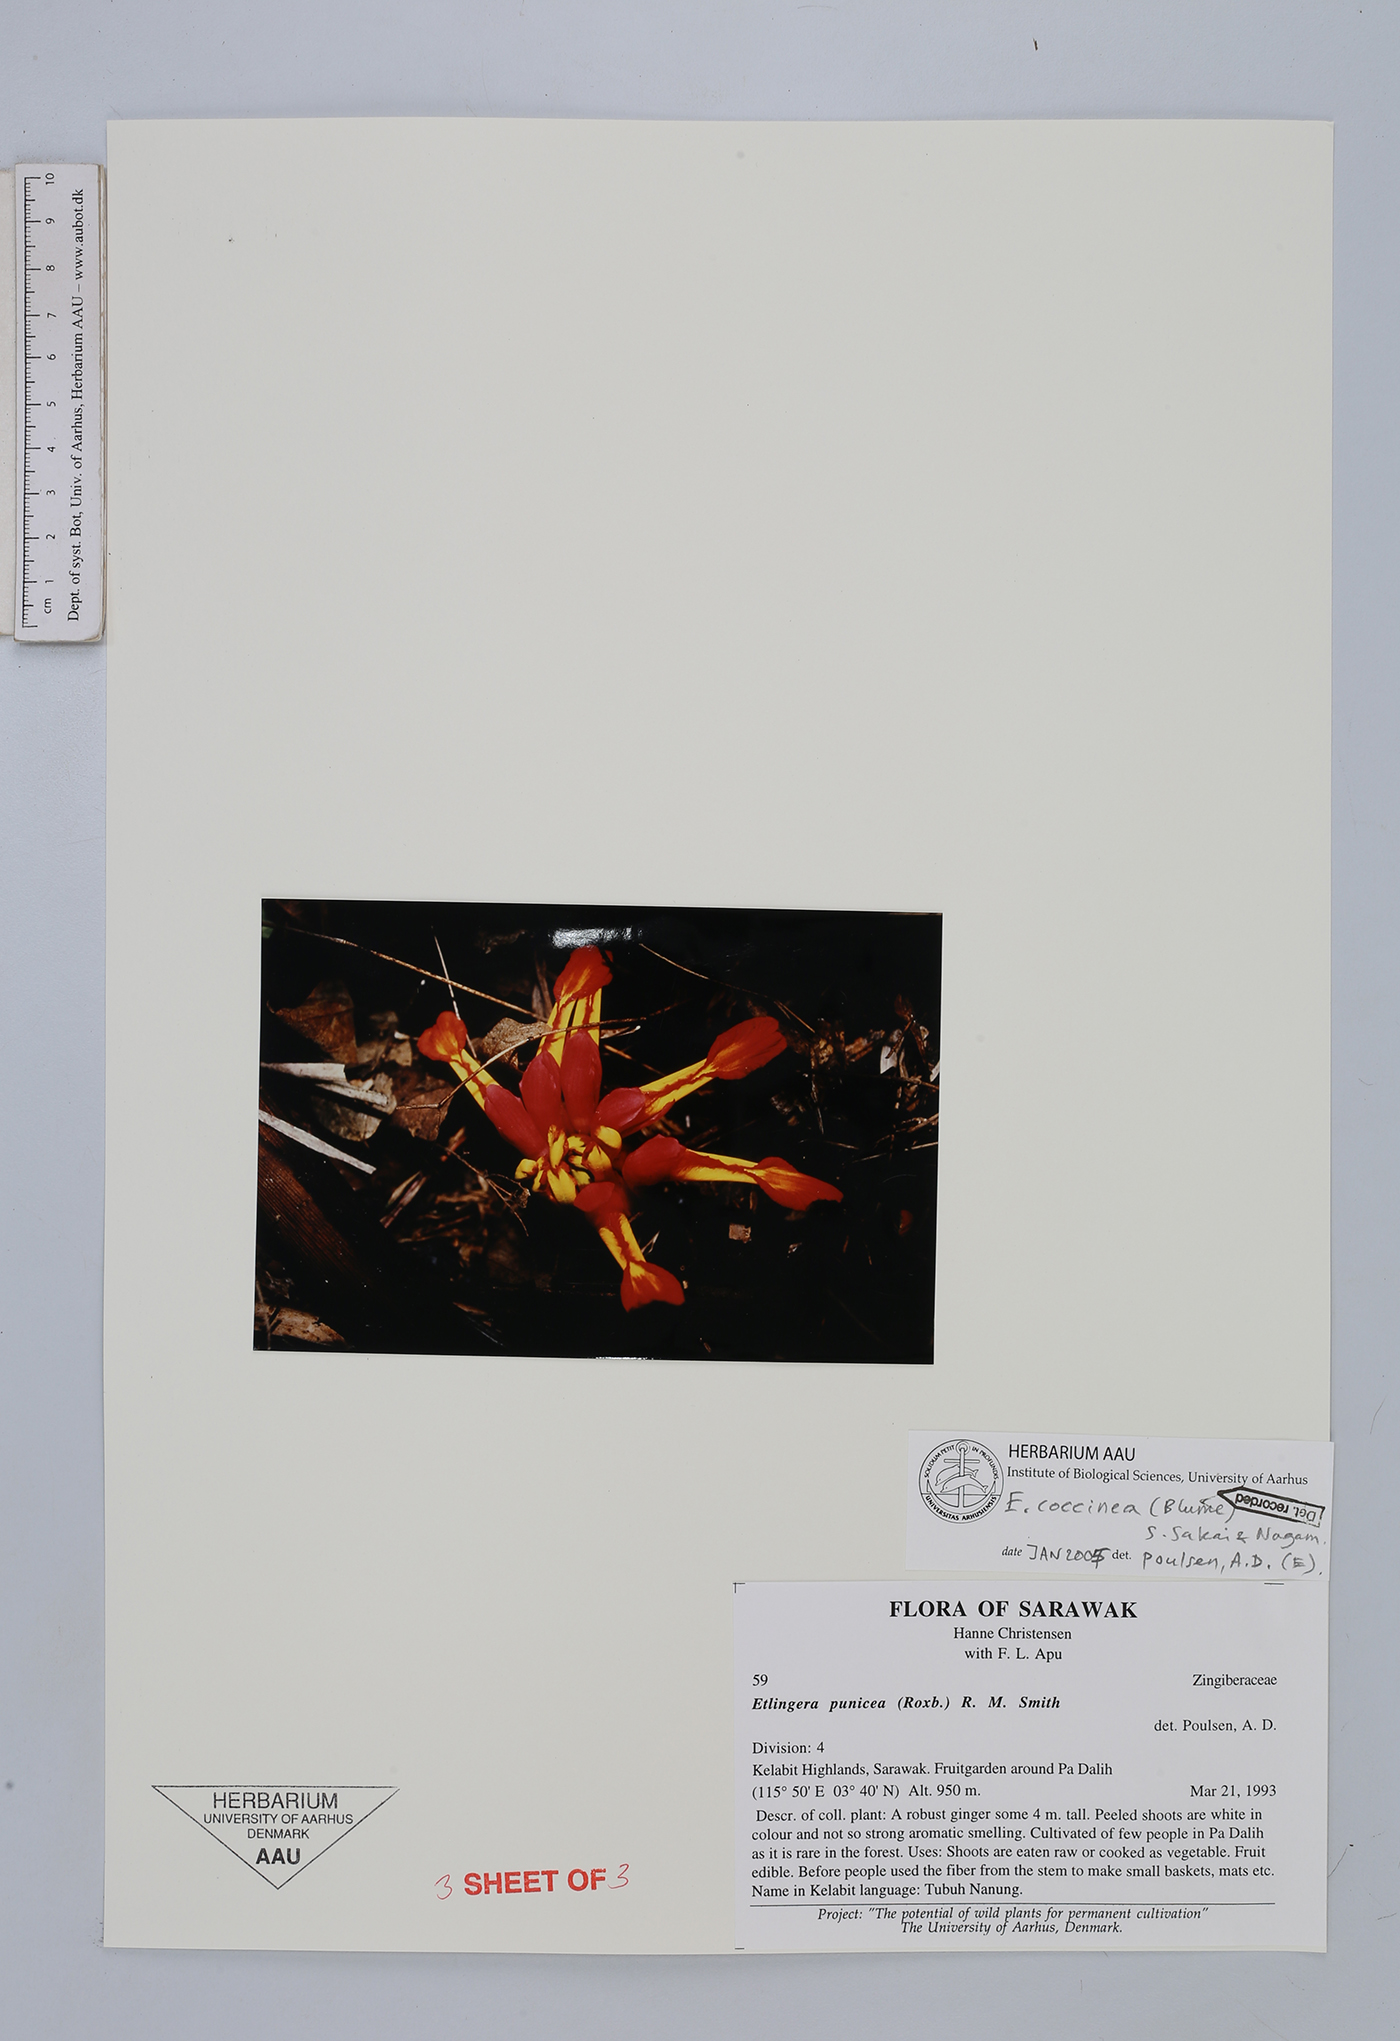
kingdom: Plantae
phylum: Tracheophyta
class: Liliopsida
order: Zingiberales
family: Zingiberaceae
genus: Etlingera
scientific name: Etlingera coccinea
